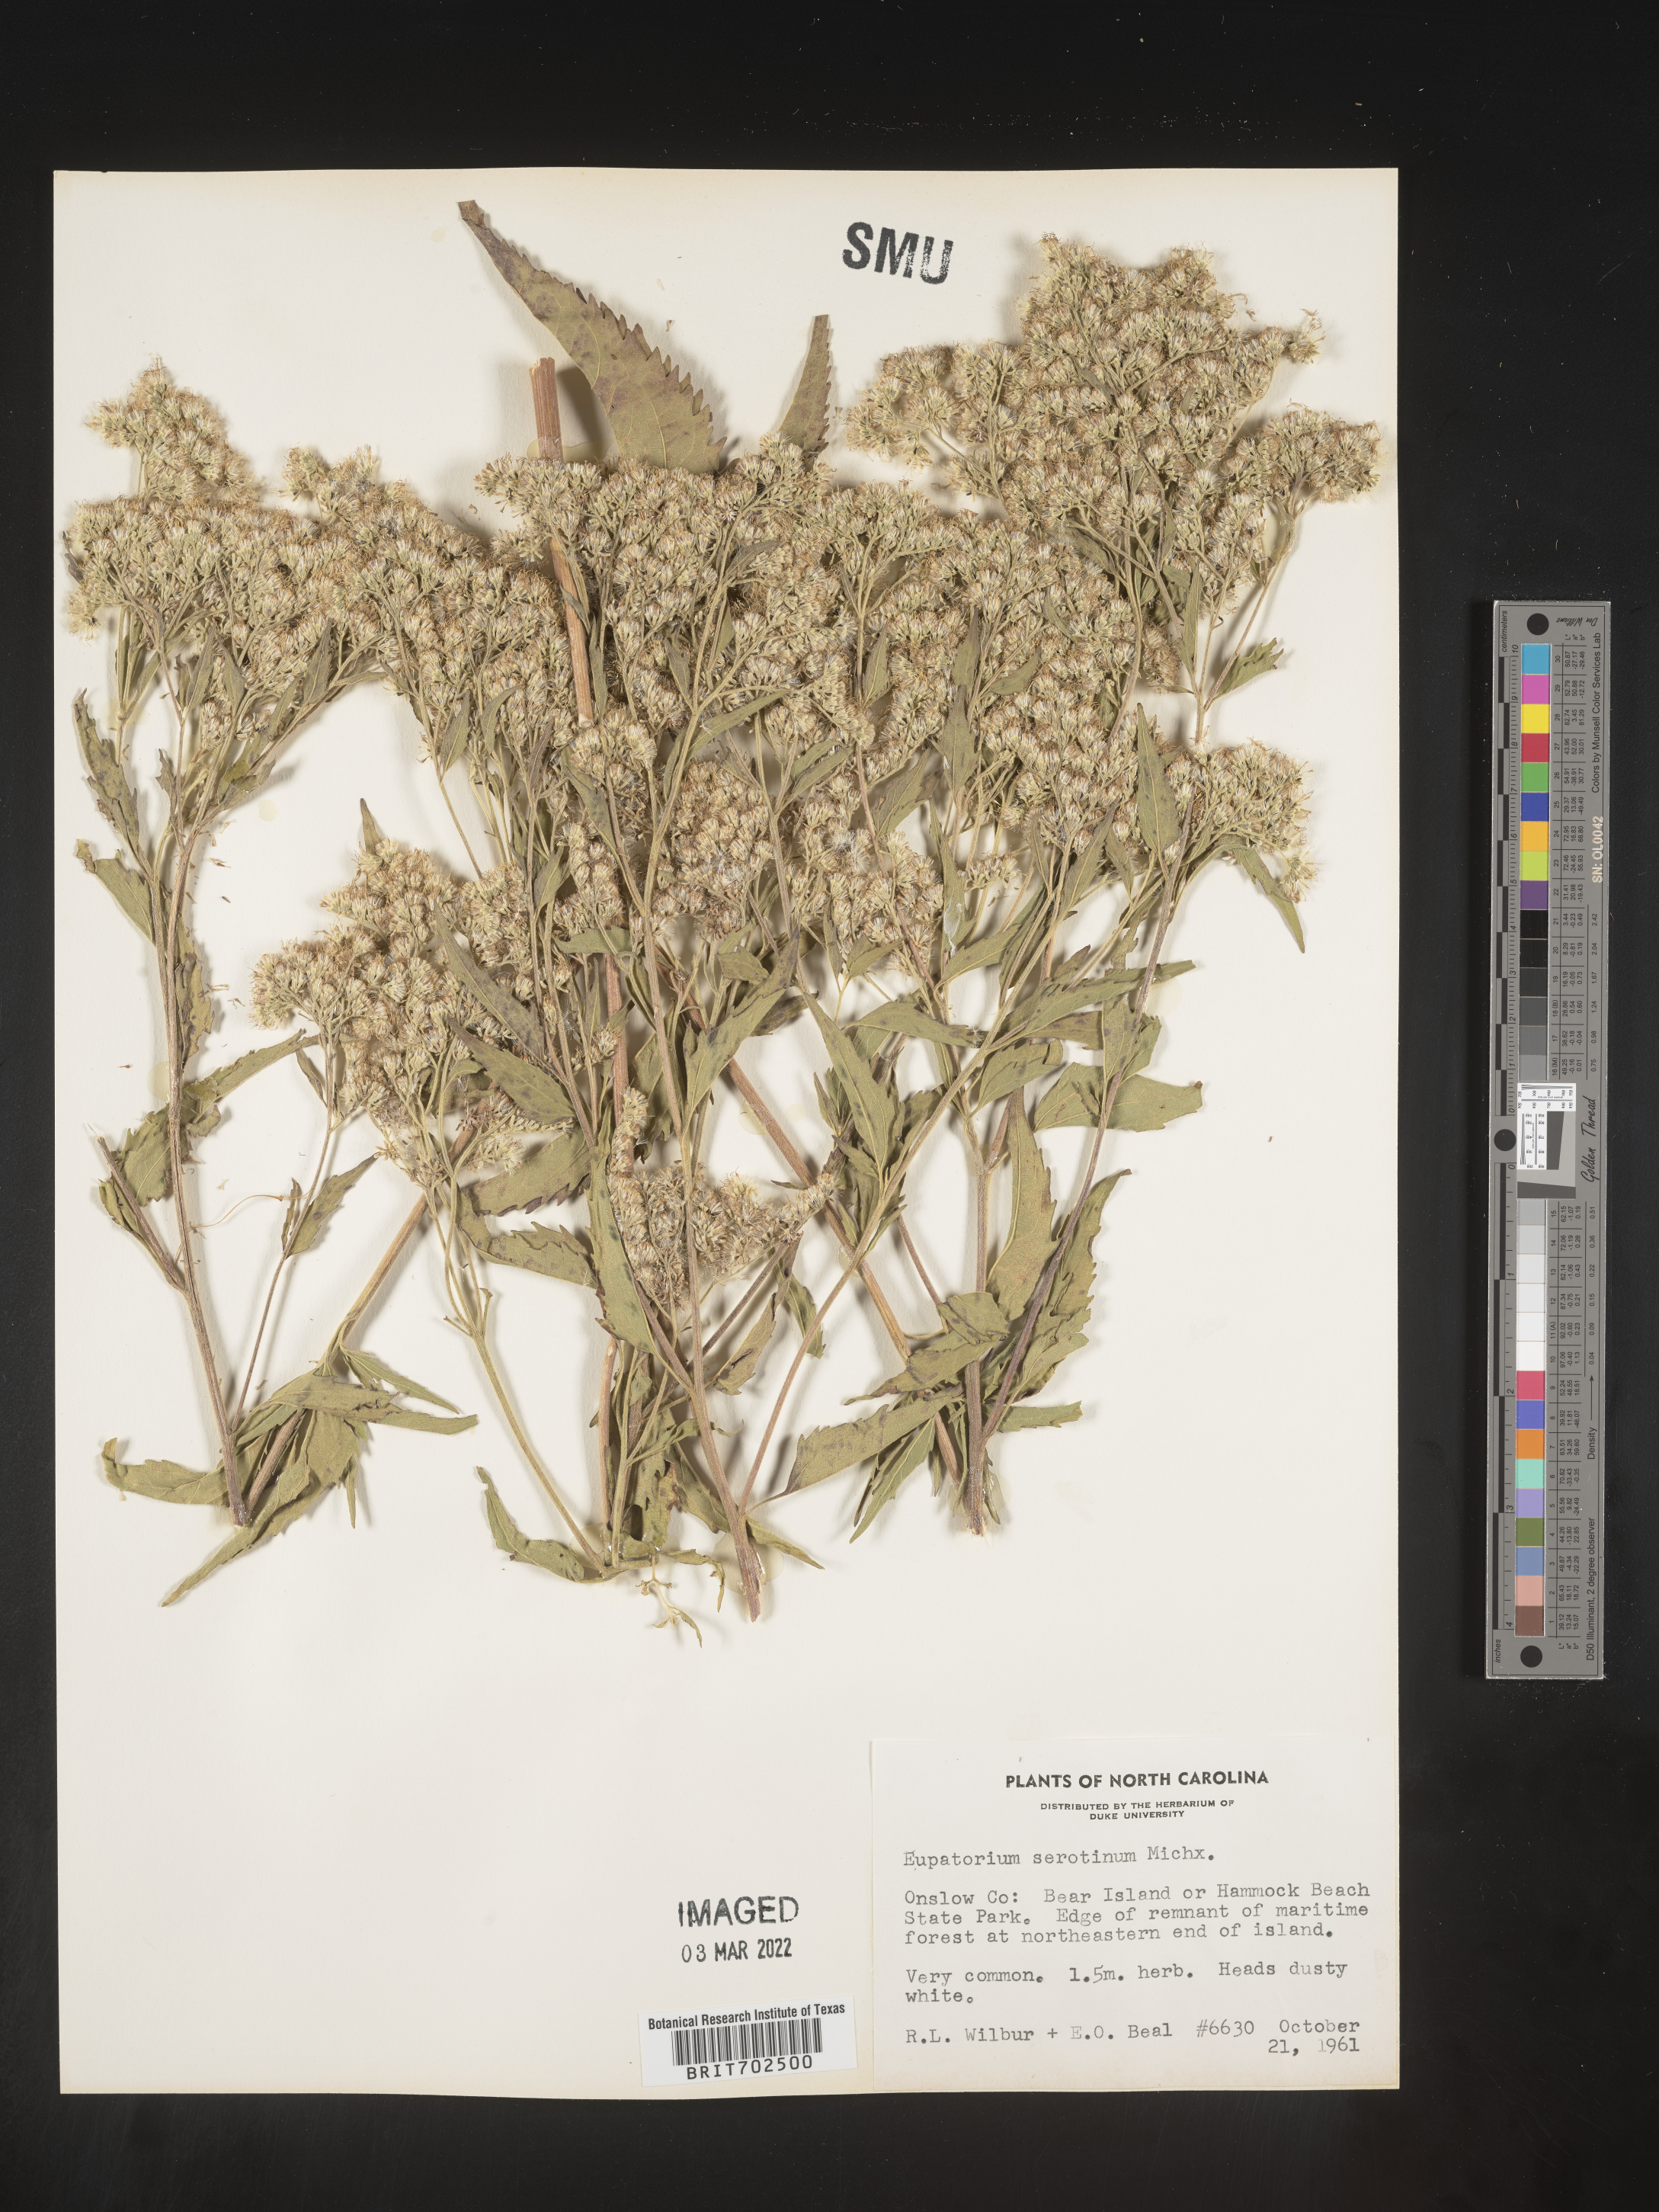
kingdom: Plantae
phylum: Tracheophyta
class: Magnoliopsida
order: Asterales
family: Asteraceae
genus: Eupatorium
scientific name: Eupatorium serotinum
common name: Late boneset
